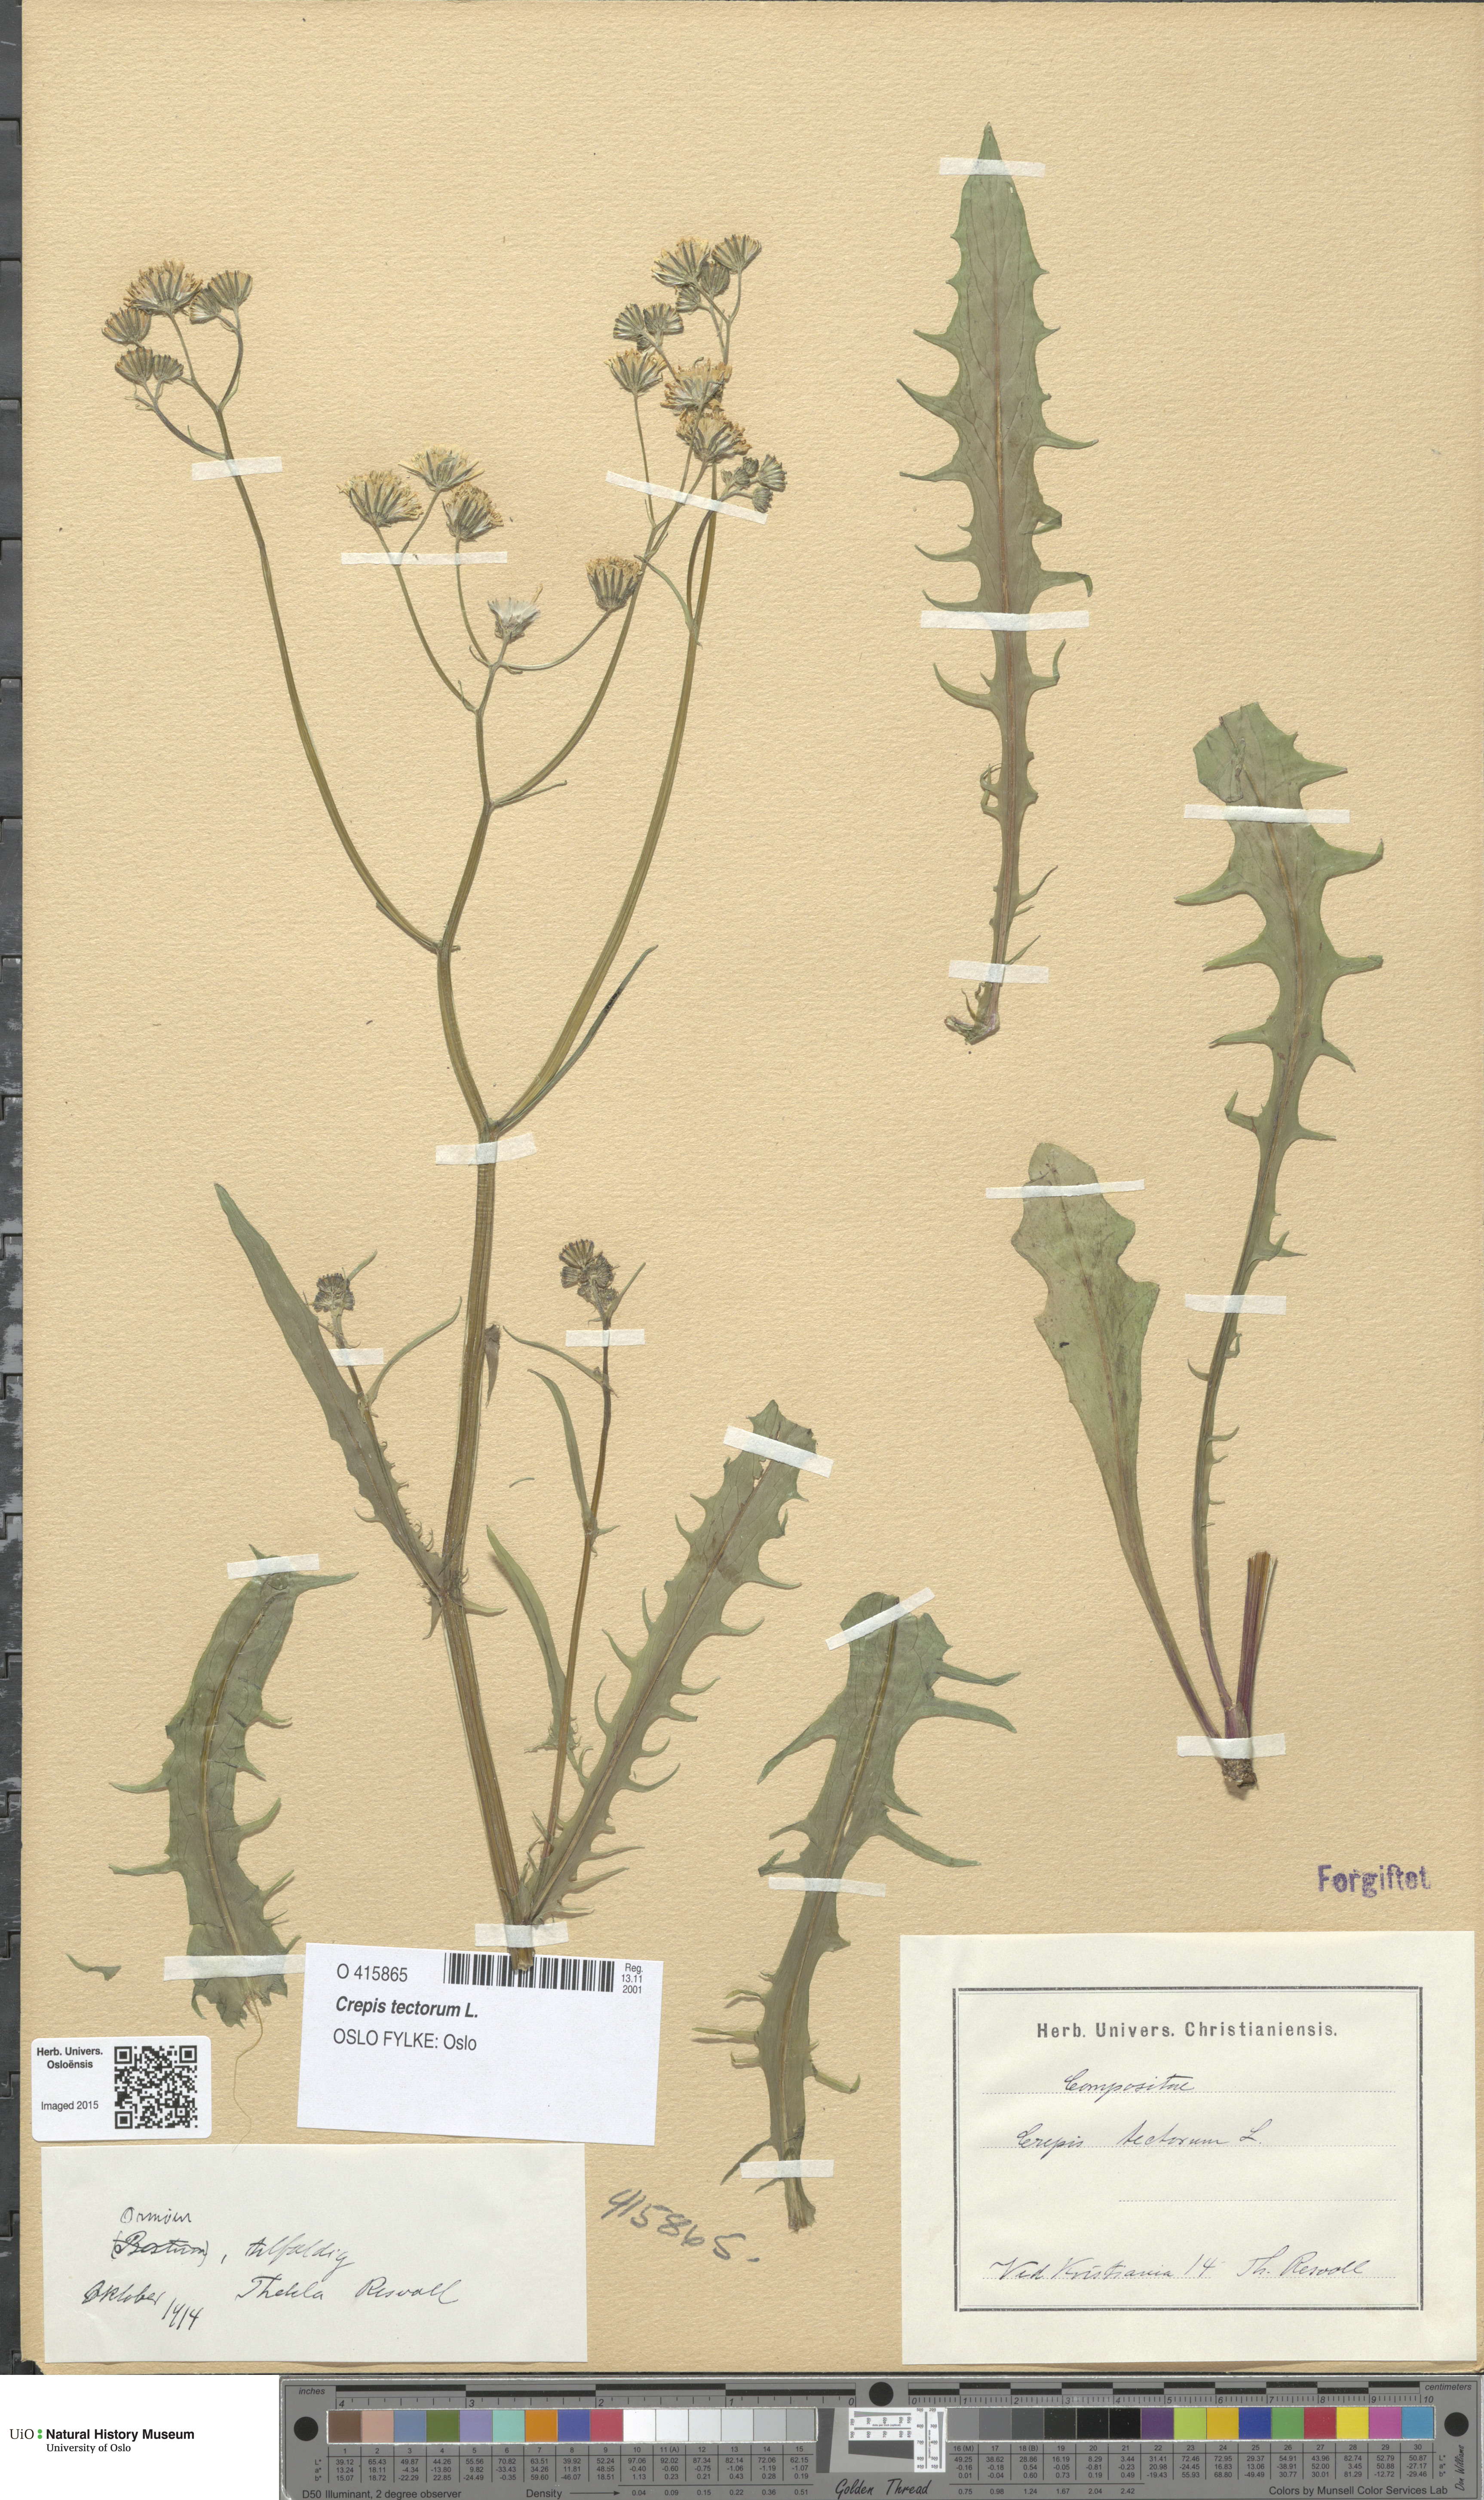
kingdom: Plantae
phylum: Tracheophyta
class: Magnoliopsida
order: Asterales
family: Asteraceae
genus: Crepis
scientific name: Crepis tectorum
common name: Narrow-leaved hawk's-beard
